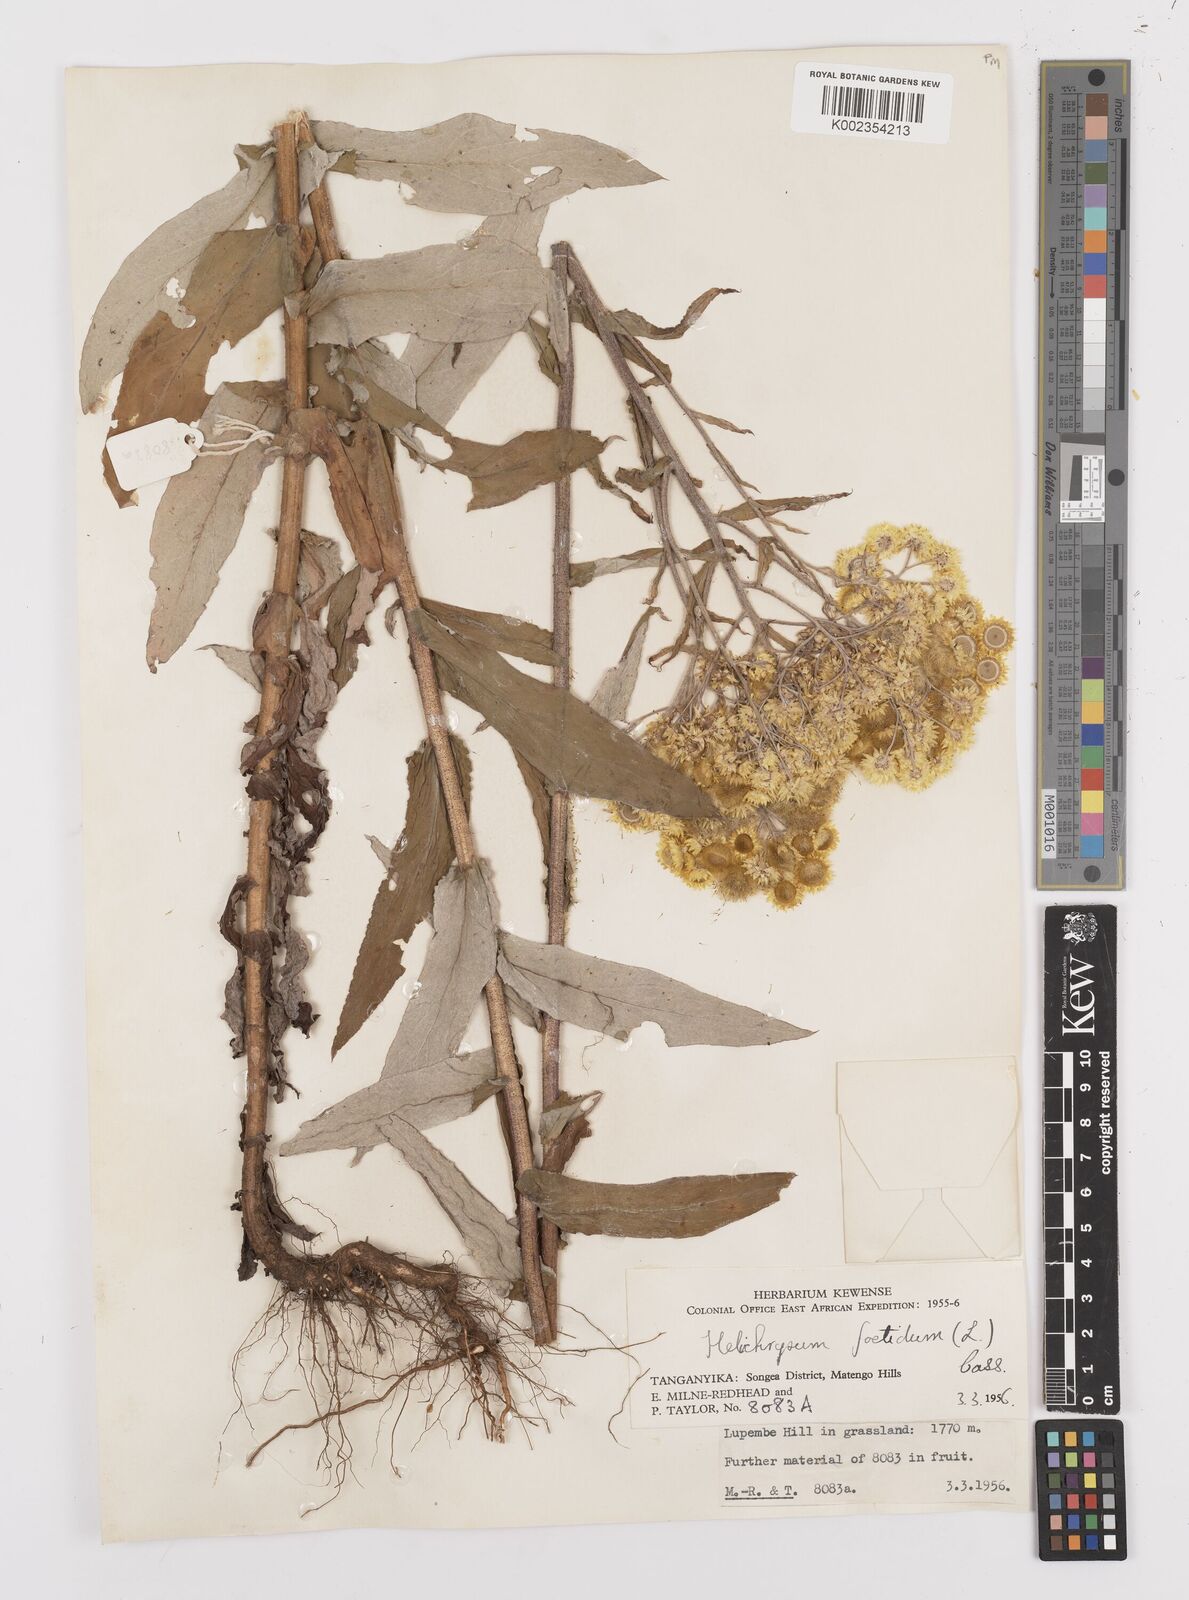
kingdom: Plantae
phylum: Tracheophyta
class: Magnoliopsida
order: Asterales
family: Asteraceae
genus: Helichrysum
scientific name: Helichrysum
